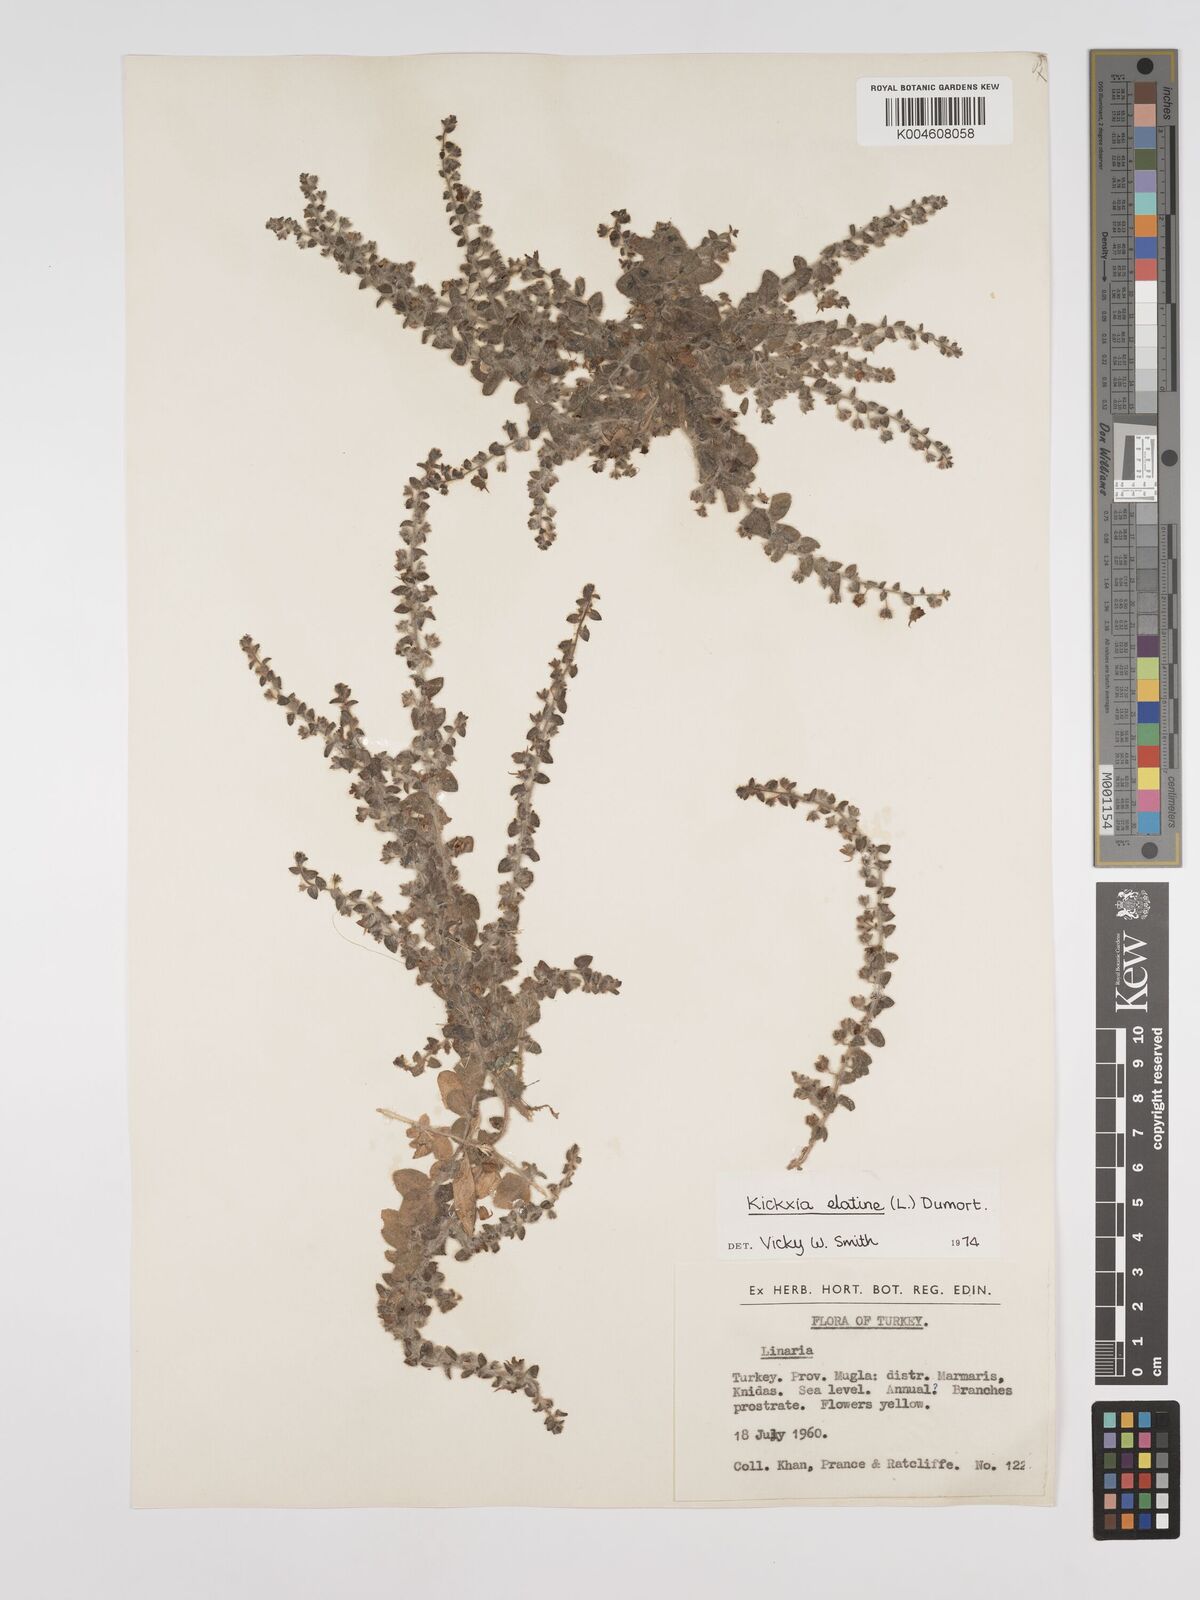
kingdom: Plantae
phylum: Tracheophyta
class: Magnoliopsida
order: Lamiales
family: Plantaginaceae
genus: Kickxia
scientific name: Kickxia elatine
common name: Sharp-leaved fluellen
